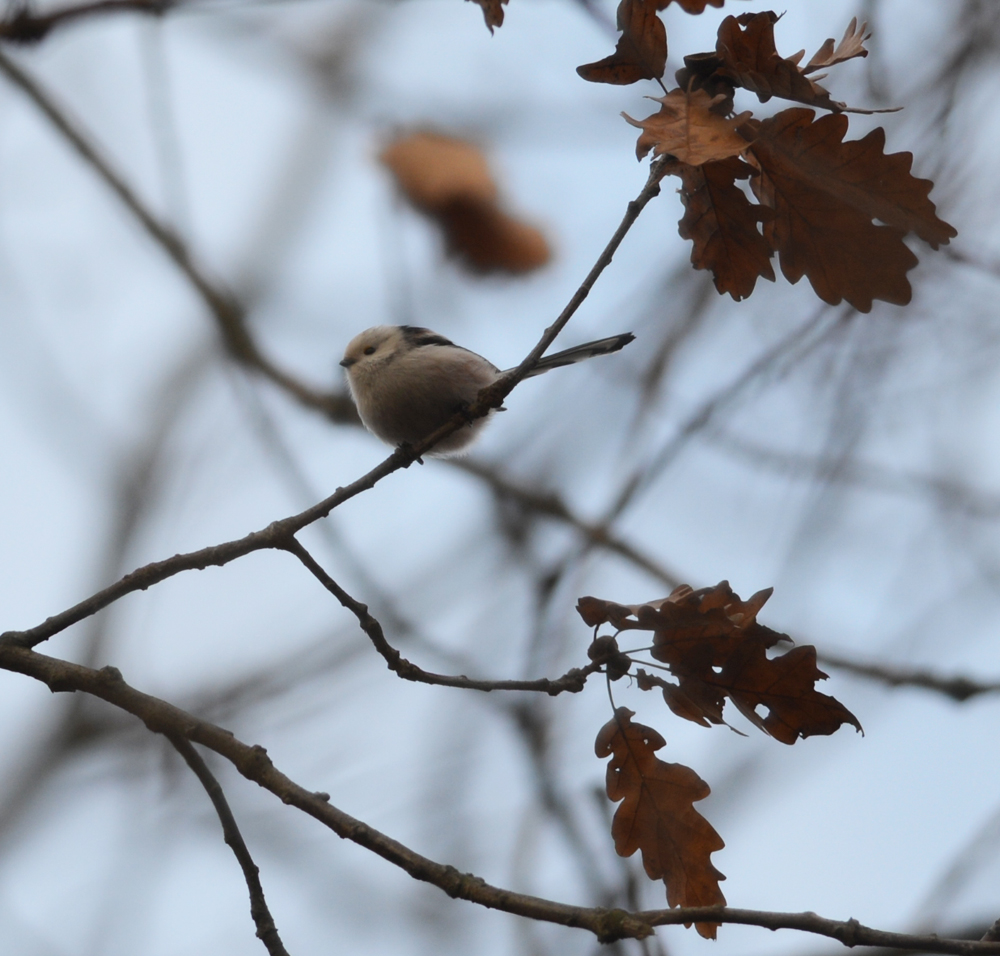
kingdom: Animalia
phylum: Chordata
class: Aves
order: Passeriformes
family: Aegithalidae
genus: Aegithalos
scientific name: Aegithalos caudatus
